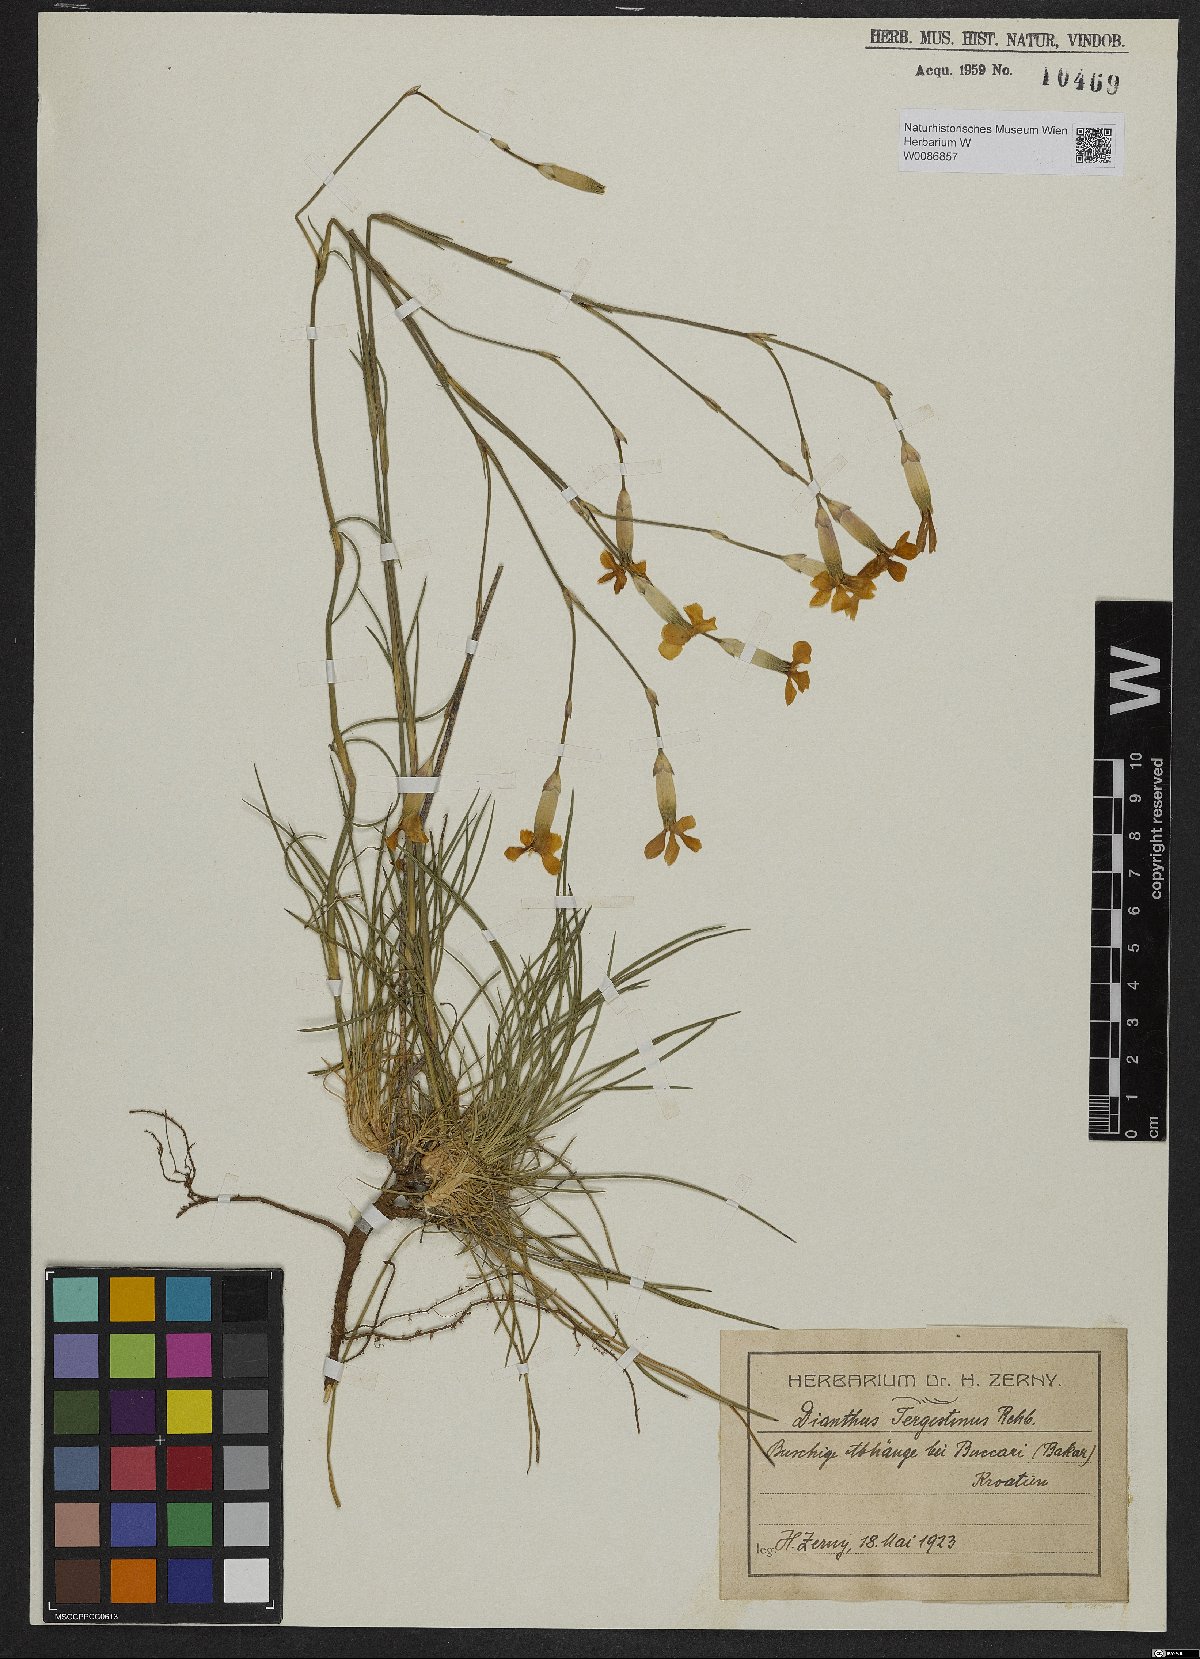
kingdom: Plantae
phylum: Tracheophyta
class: Magnoliopsida
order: Caryophyllales
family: Caryophyllaceae
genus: Dianthus
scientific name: Dianthus sylvestris
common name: Wood pink
